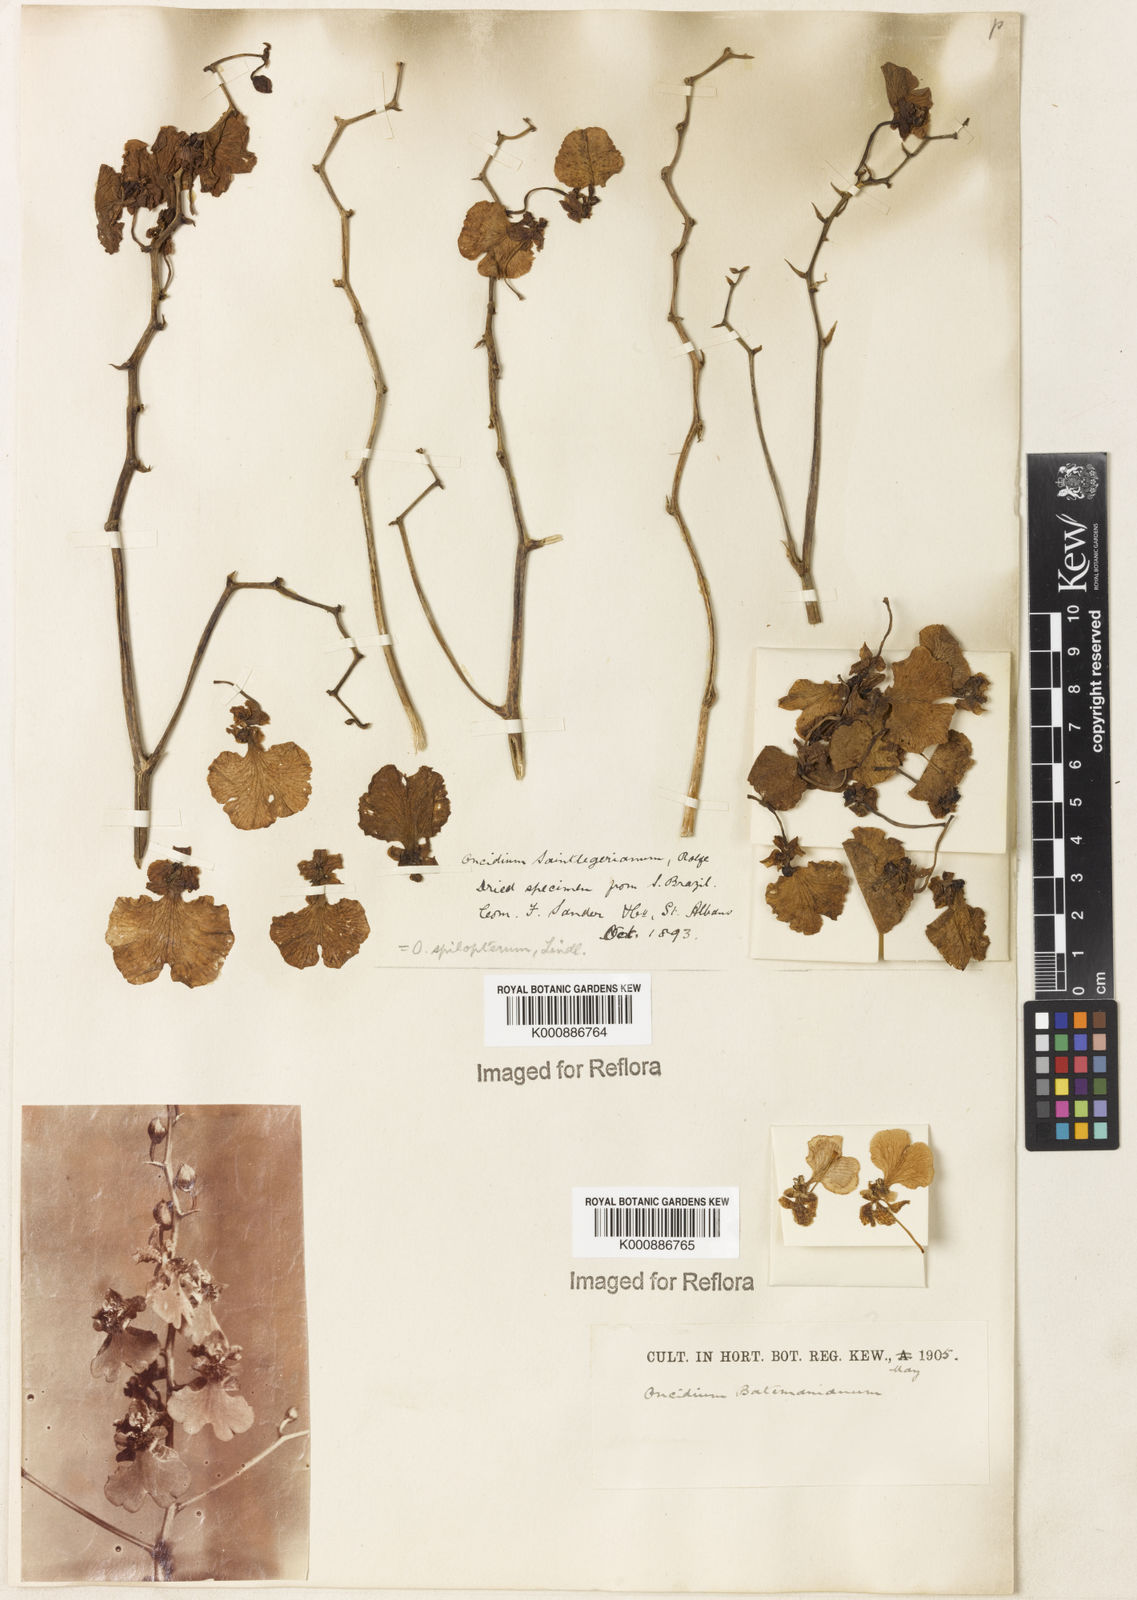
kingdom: Plantae
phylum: Tracheophyta
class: Liliopsida
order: Asparagales
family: Orchidaceae
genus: Gomesa
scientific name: Gomesa ramosa
